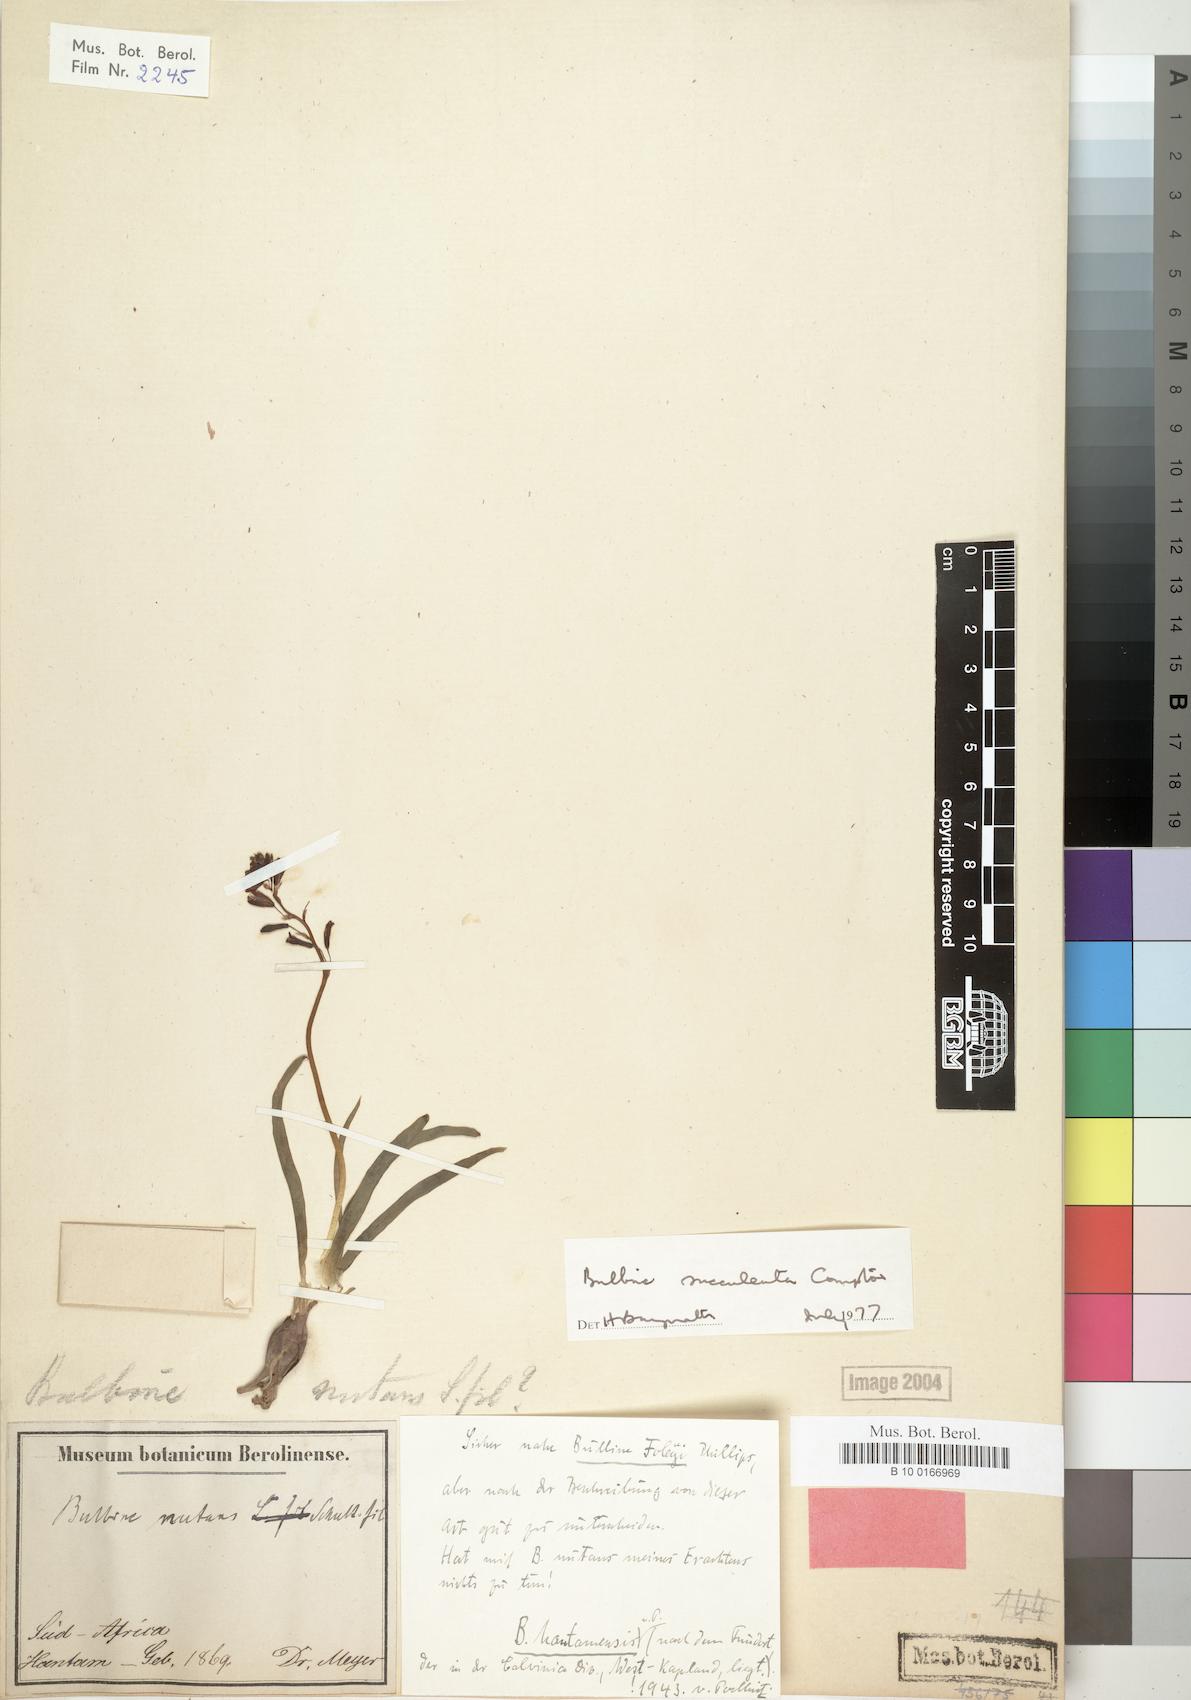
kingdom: Plantae
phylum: Tracheophyta
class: Liliopsida
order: Asparagales
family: Asphodelaceae
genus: Bulbine
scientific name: Bulbine succulenta
